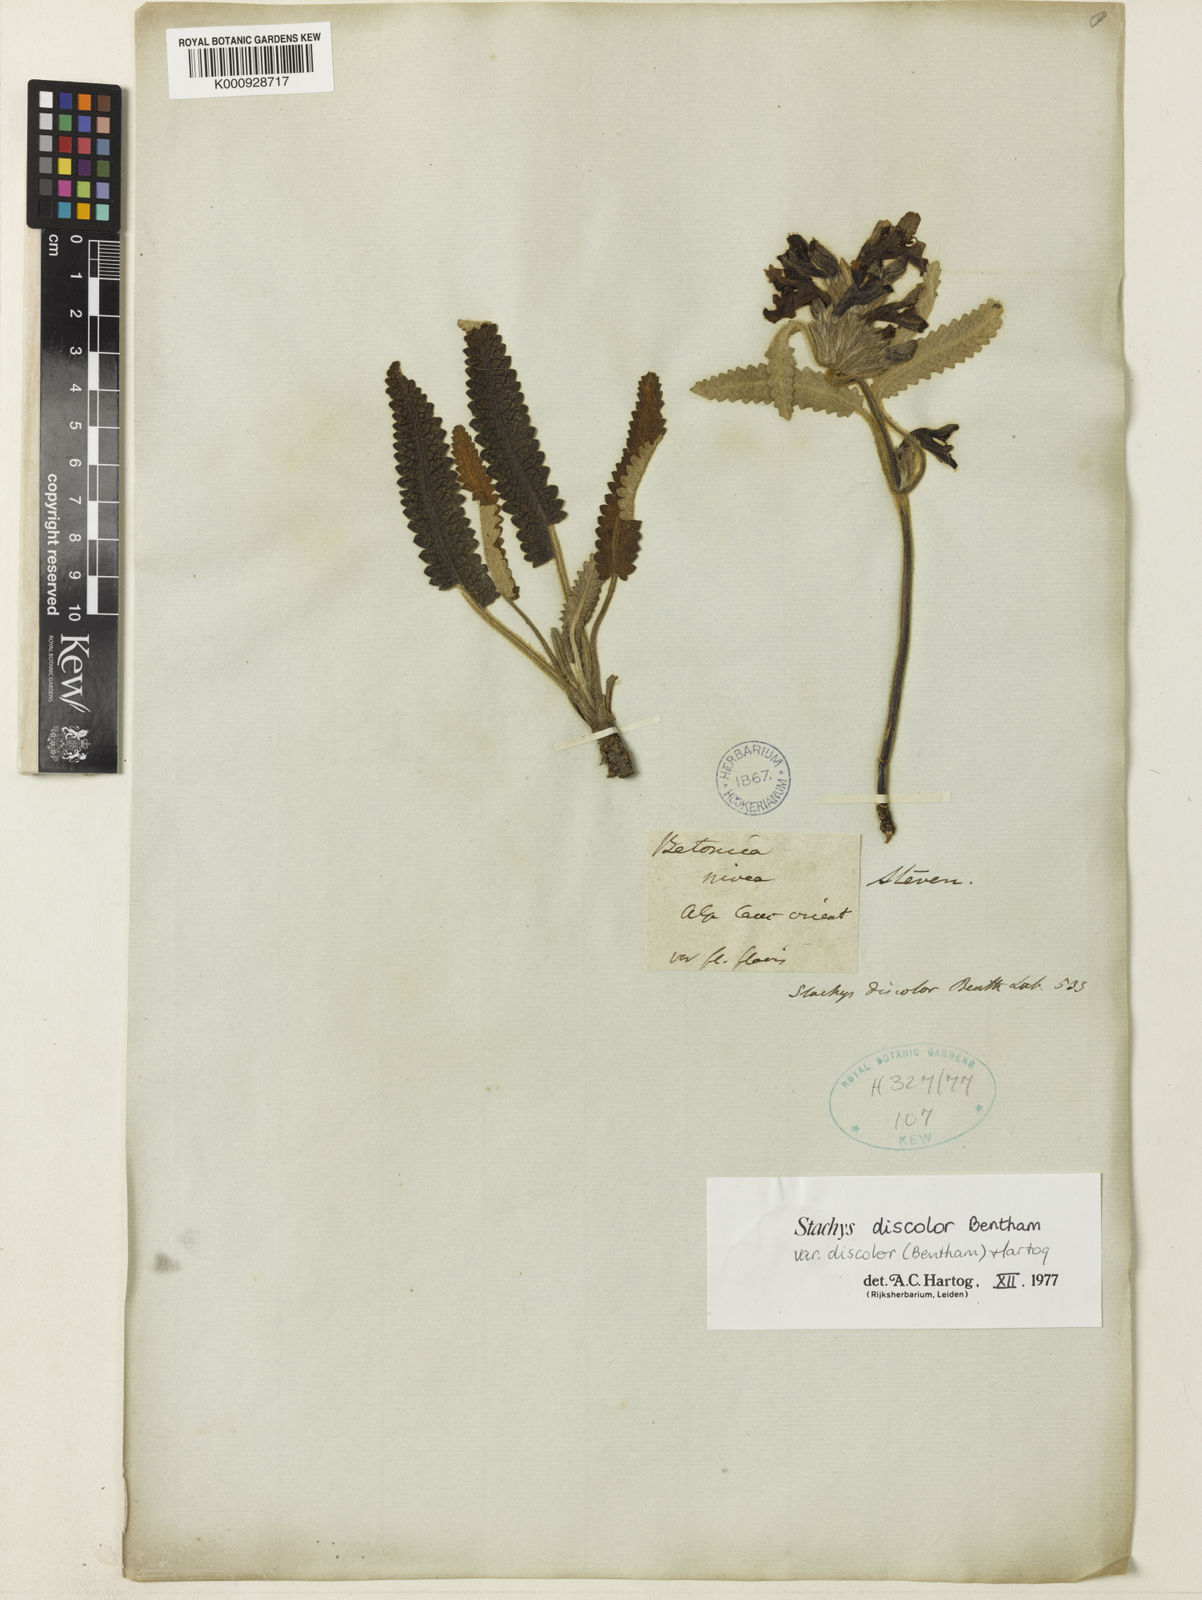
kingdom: Plantae
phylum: Tracheophyta
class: Magnoliopsida
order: Lamiales
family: Lamiaceae
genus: Stachys
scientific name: Stachys nivea
